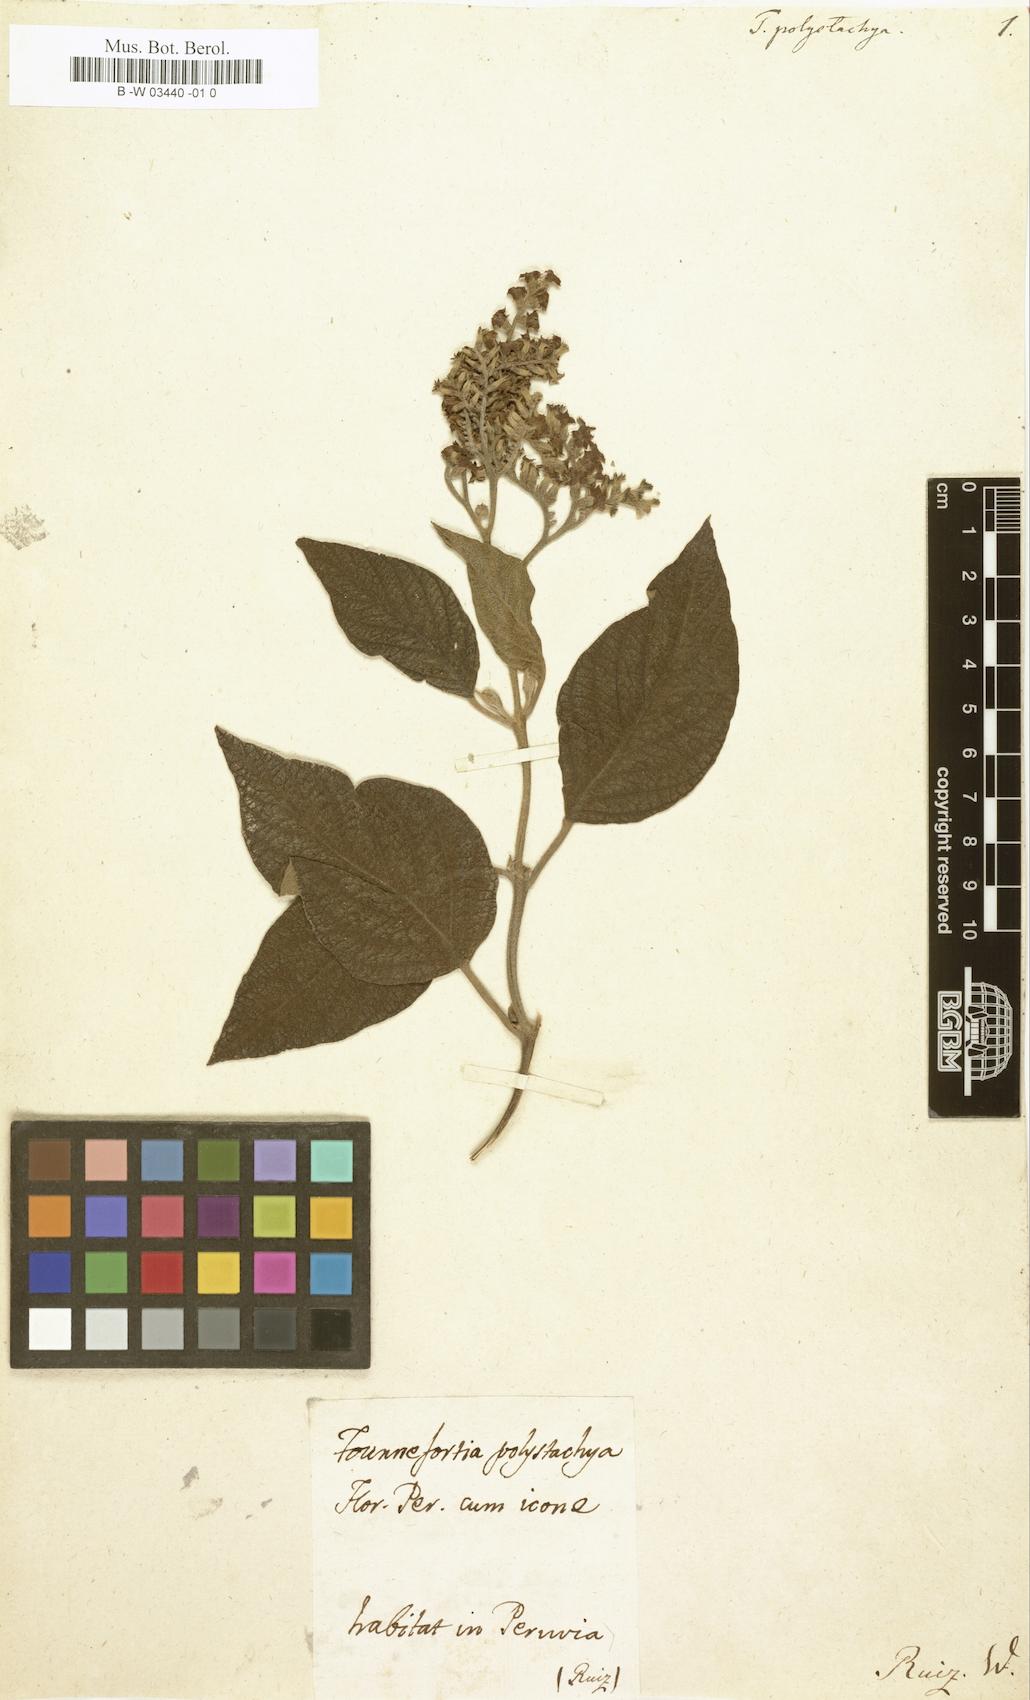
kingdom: Plantae
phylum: Tracheophyta
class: Magnoliopsida
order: Boraginales
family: Heliotropiaceae
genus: Tournefortia
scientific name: Tournefortia polystachya
